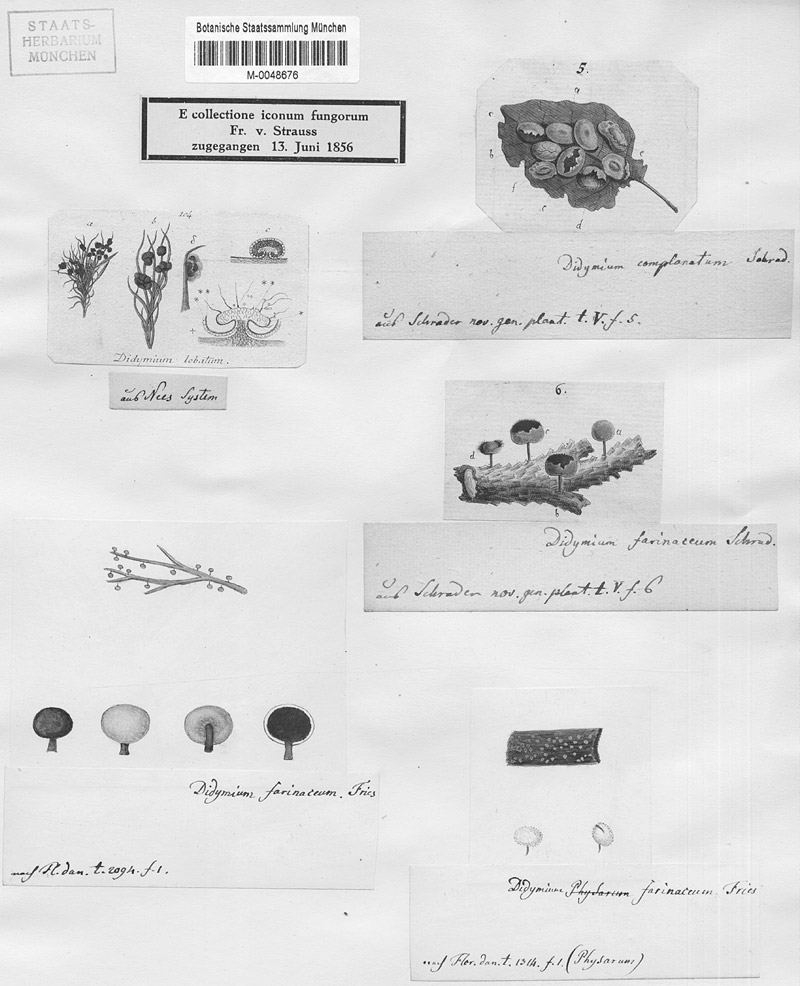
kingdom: Protozoa
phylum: Mycetozoa
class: Myxomycetes
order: Physarales
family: Didymiaceae
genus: Didymium
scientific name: Didymium melanospermum
